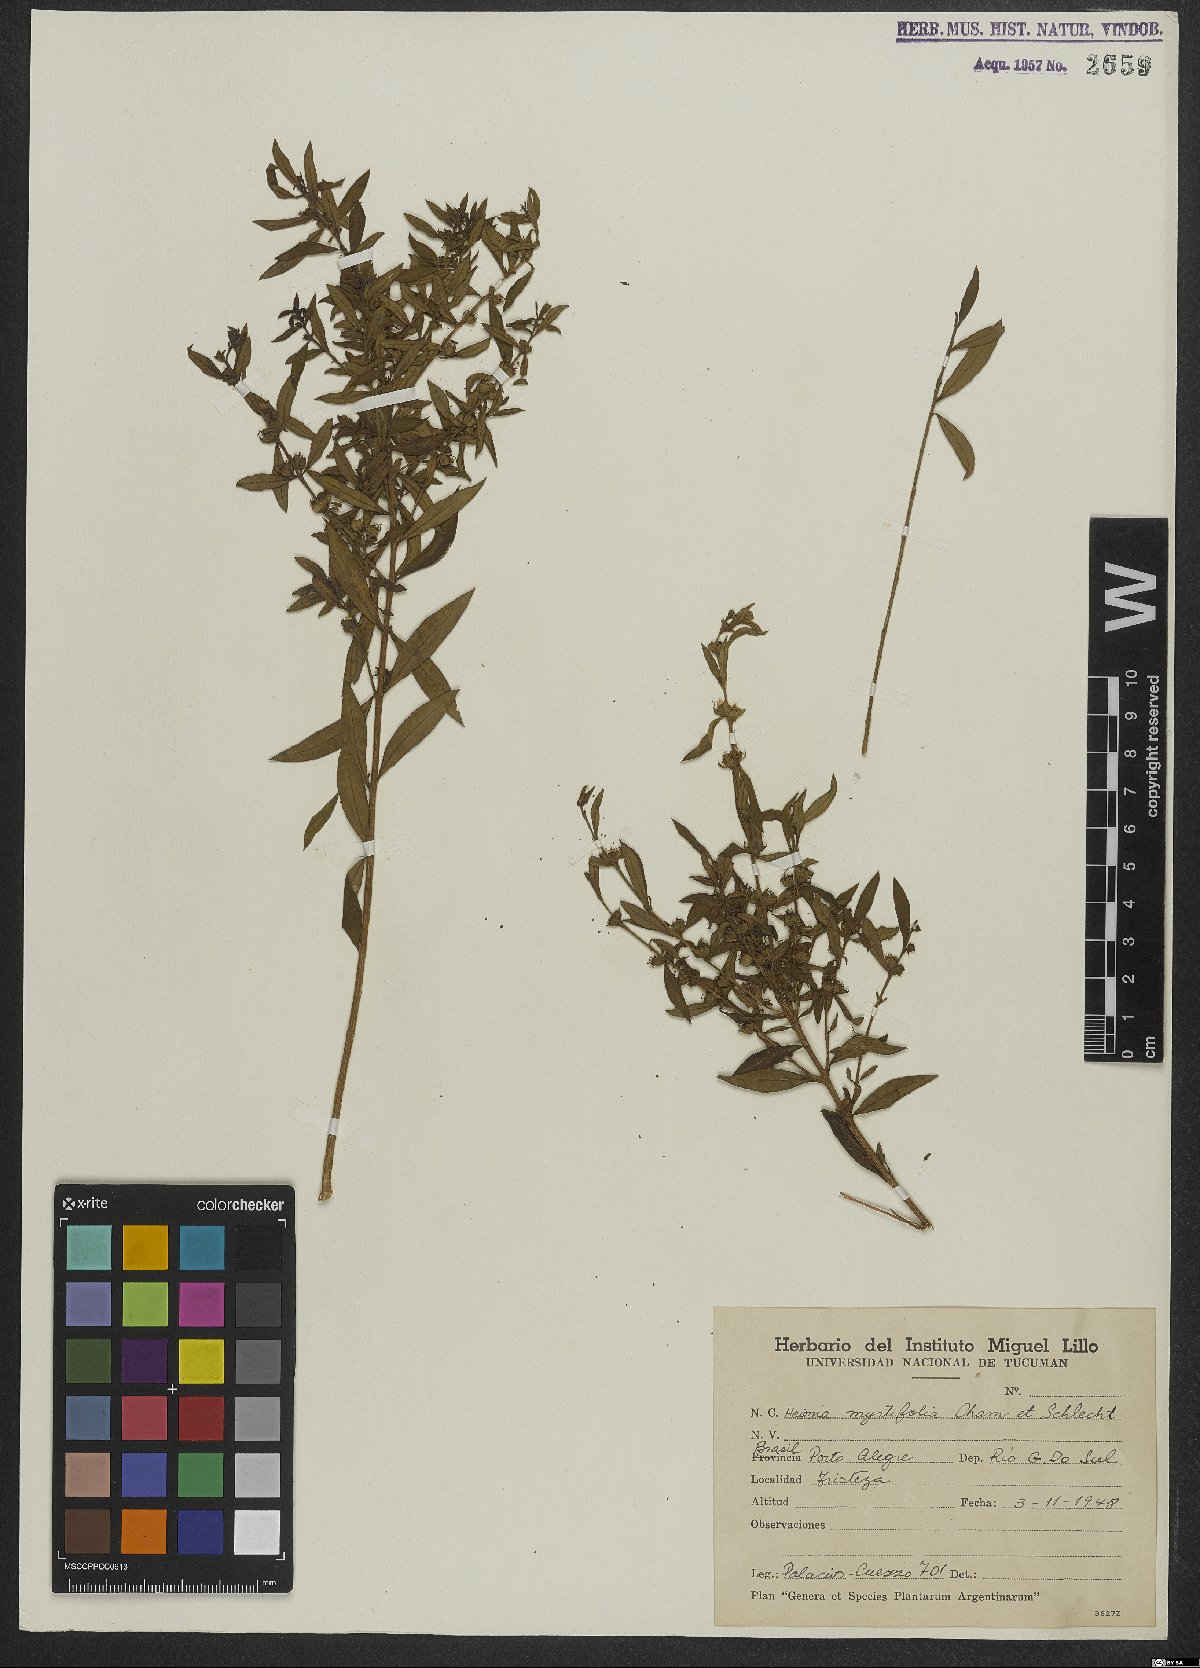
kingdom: Plantae
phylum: Tracheophyta
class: Magnoliopsida
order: Myrtales
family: Lythraceae
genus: Heimia
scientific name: Heimia apetala
